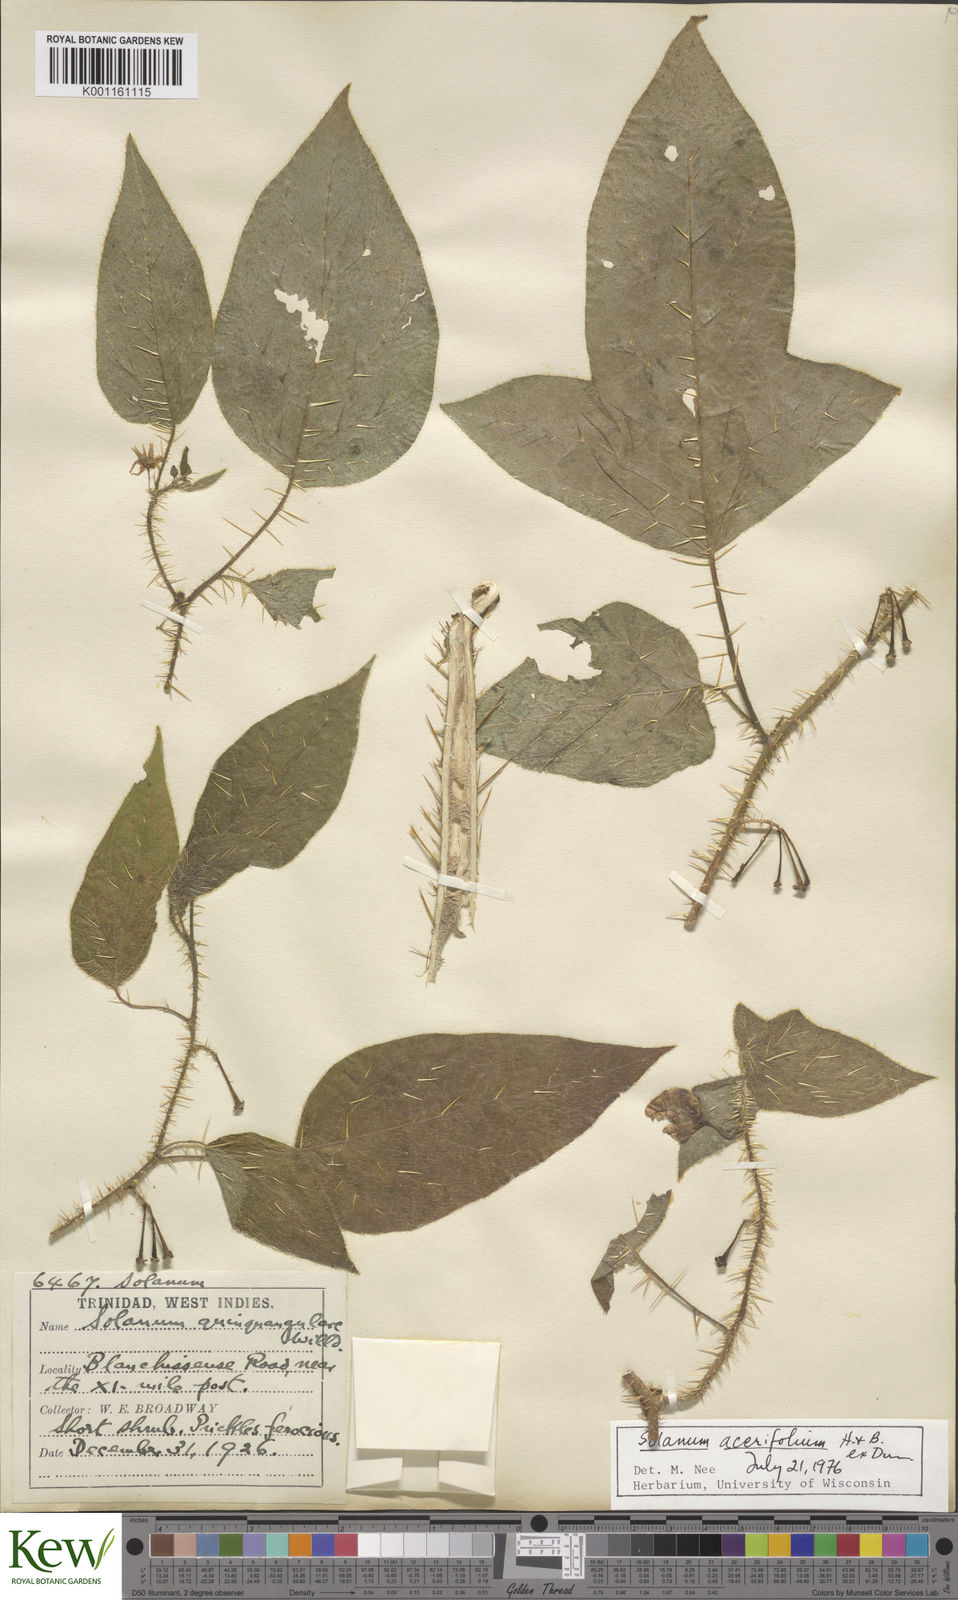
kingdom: Plantae
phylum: Tracheophyta
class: Magnoliopsida
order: Solanales
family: Solanaceae
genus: Solanum
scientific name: Solanum
